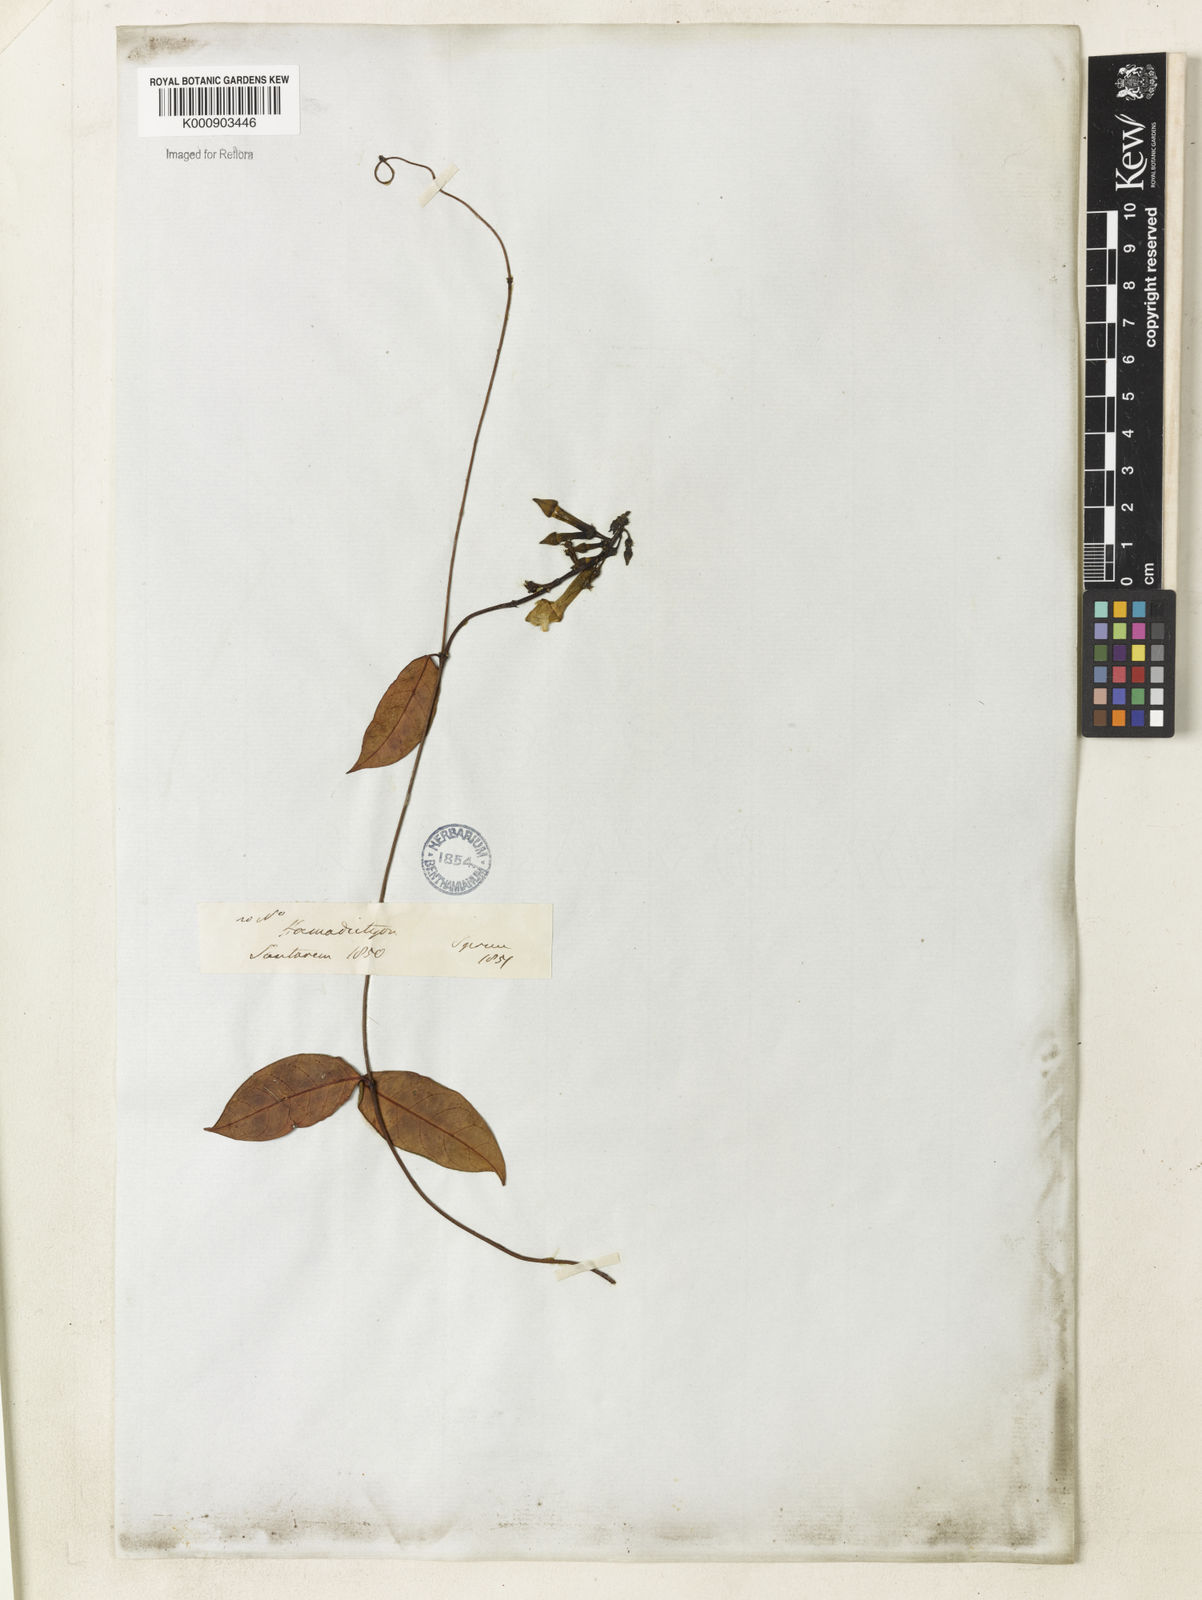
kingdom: Plantae
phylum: Tracheophyta
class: Magnoliopsida
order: Gentianales
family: Apocynaceae
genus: Prestonia
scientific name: Prestonia
